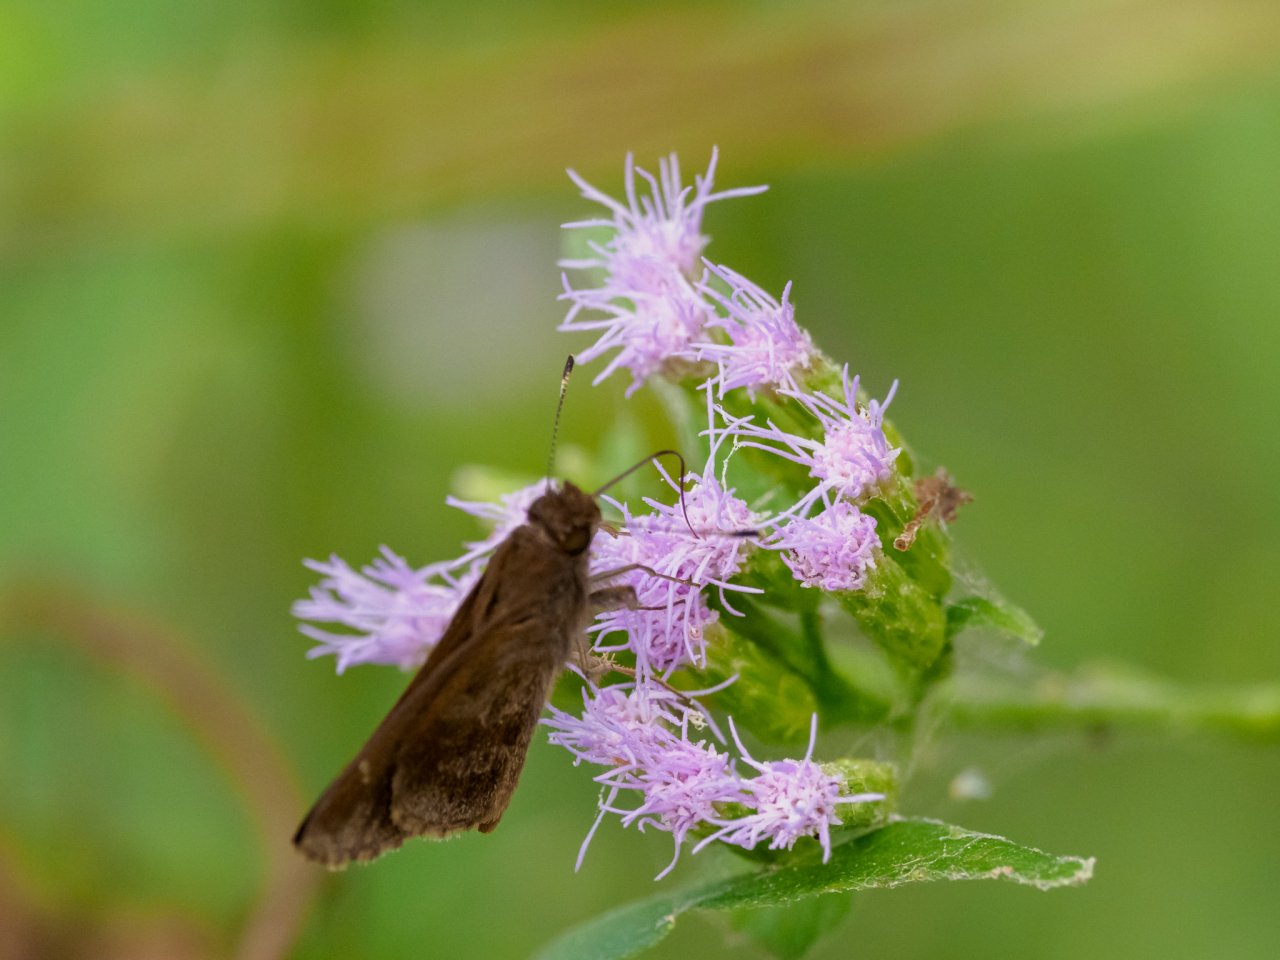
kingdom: Animalia
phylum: Arthropoda
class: Insecta
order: Lepidoptera
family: Hesperiidae
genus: Cymaenes
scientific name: Cymaenes odilia
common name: Fawn-spotted Skipper
